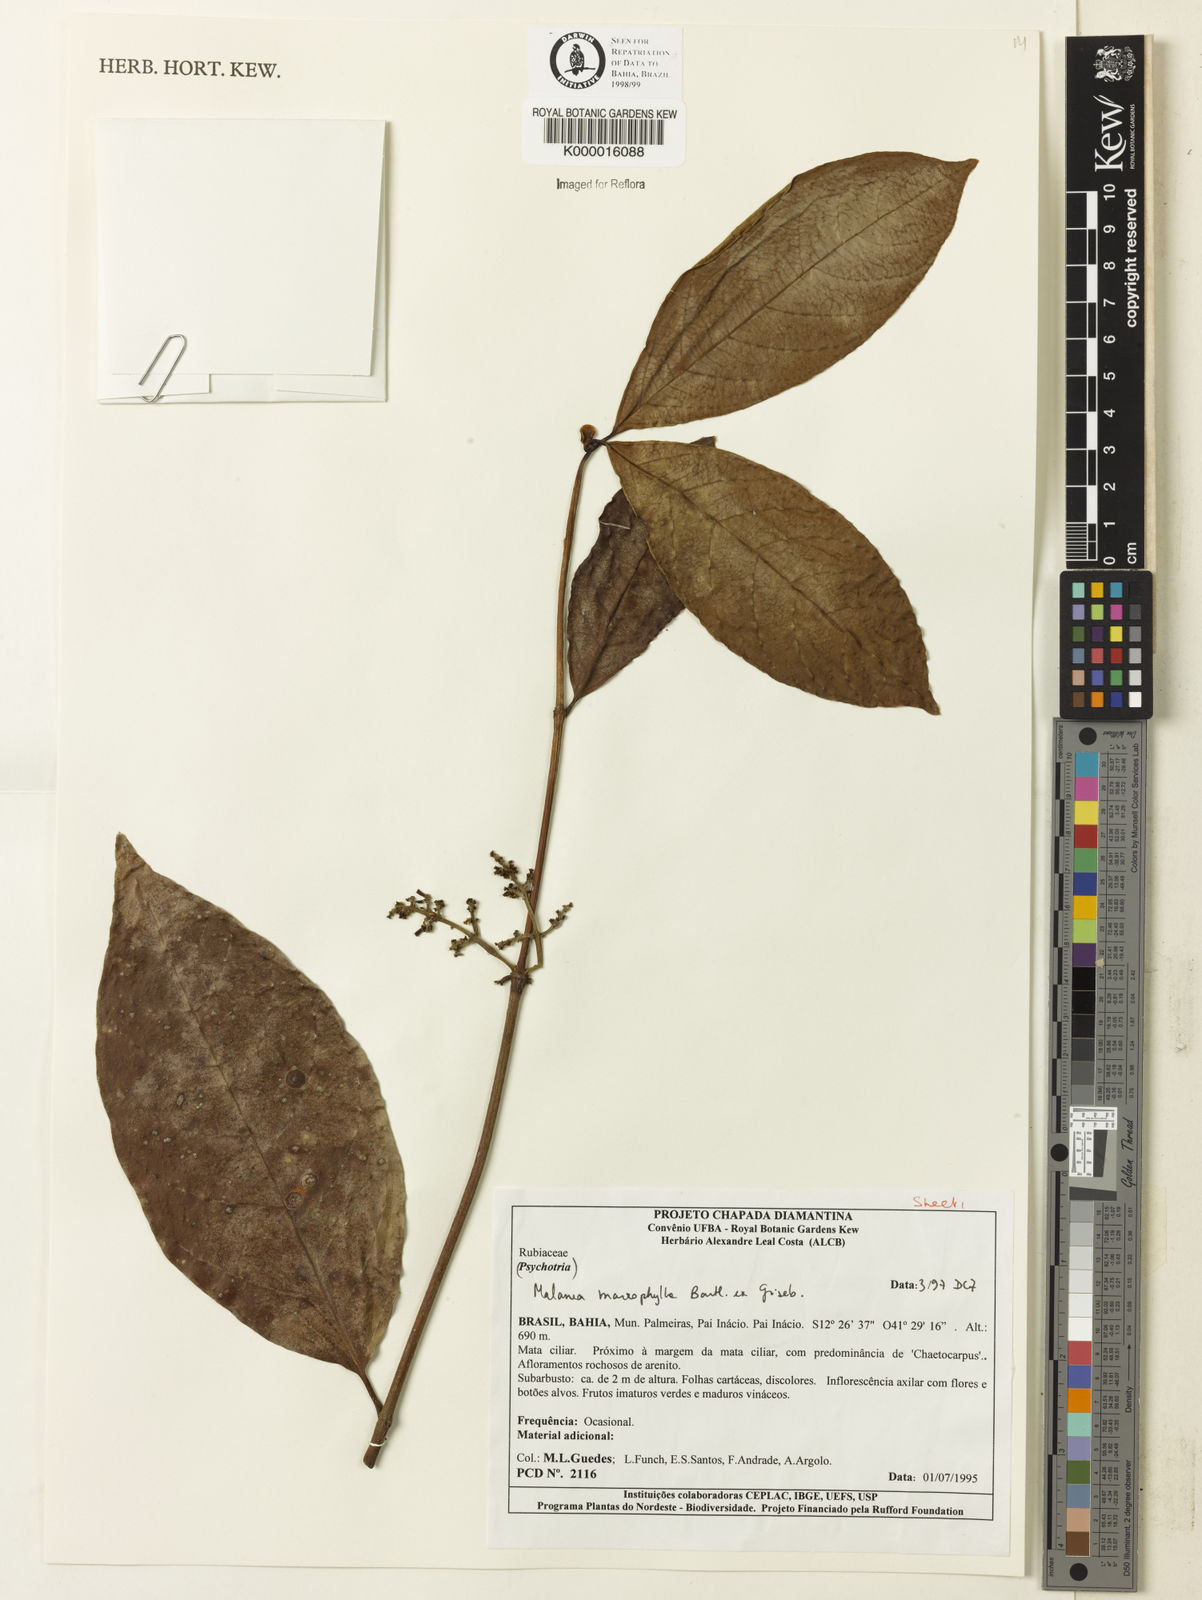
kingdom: Plantae
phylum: Tracheophyta
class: Magnoliopsida
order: Gentianales
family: Rubiaceae
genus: Malanea
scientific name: Malanea glabra
